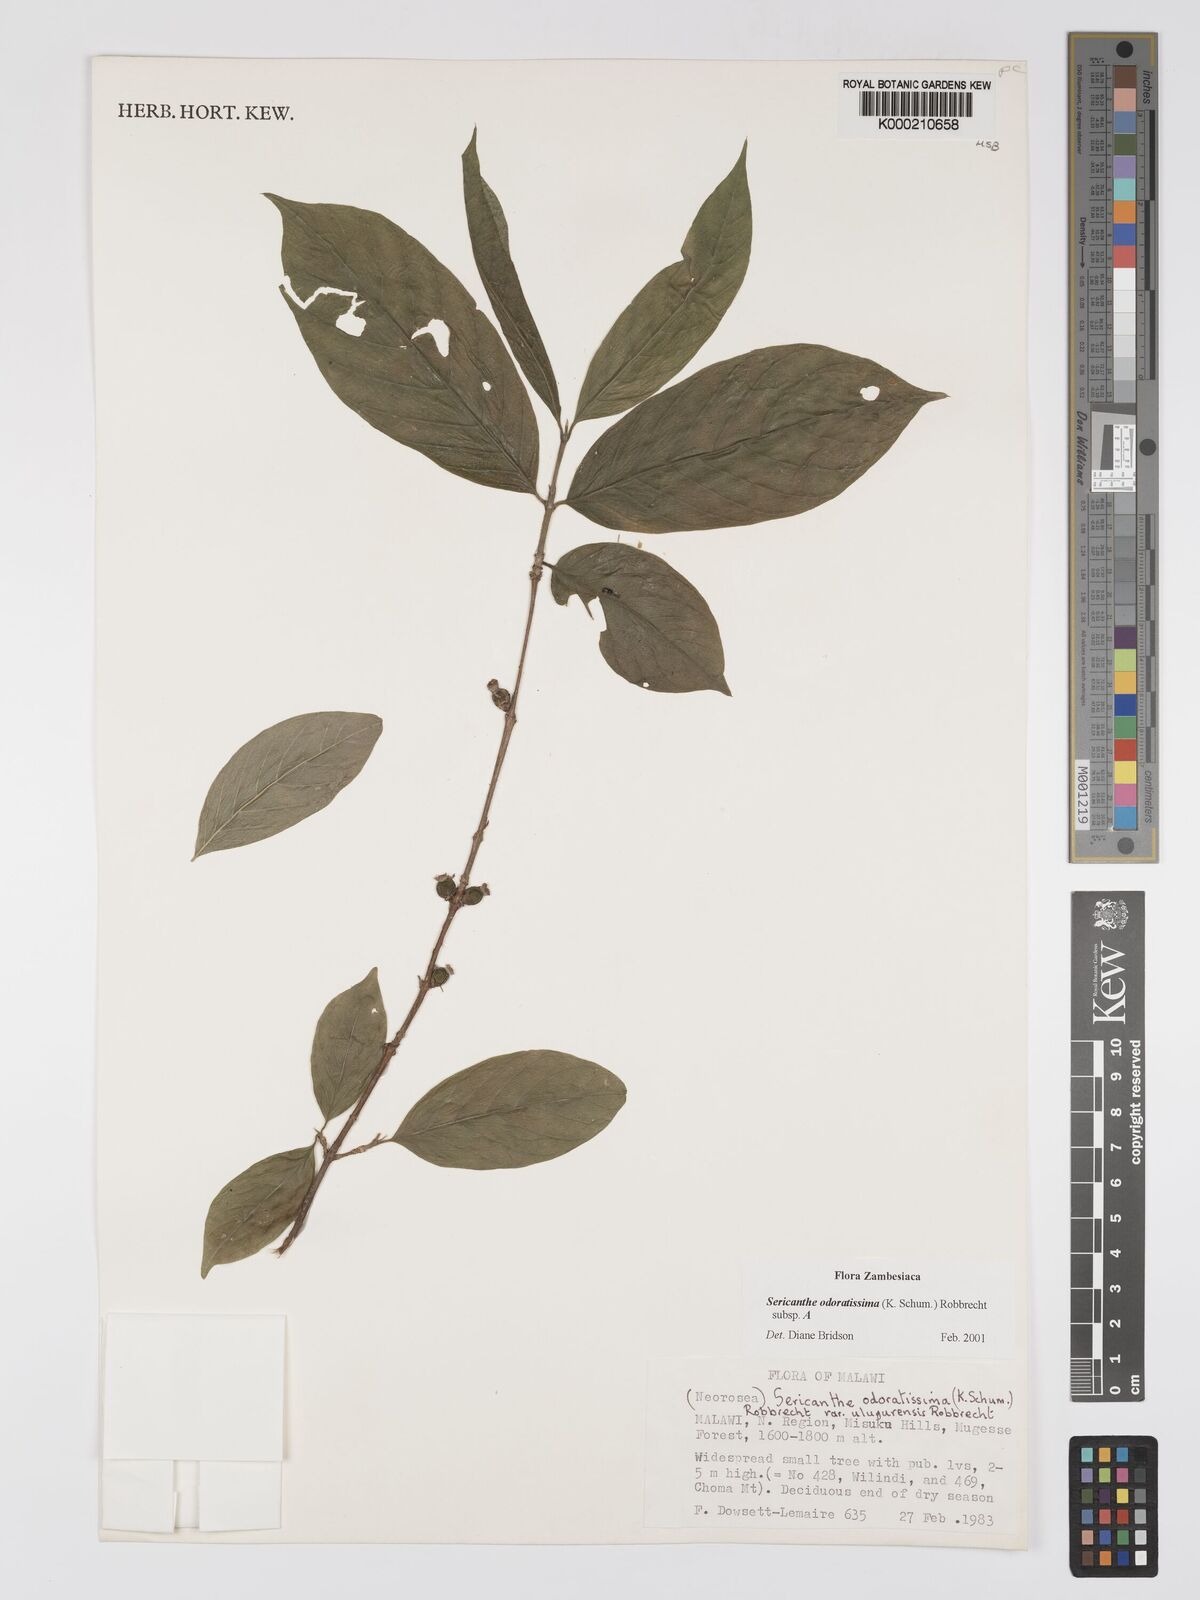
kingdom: Plantae
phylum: Tracheophyta
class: Magnoliopsida
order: Gentianales
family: Rubiaceae
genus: Sericanthe
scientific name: Sericanthe odoratissima
